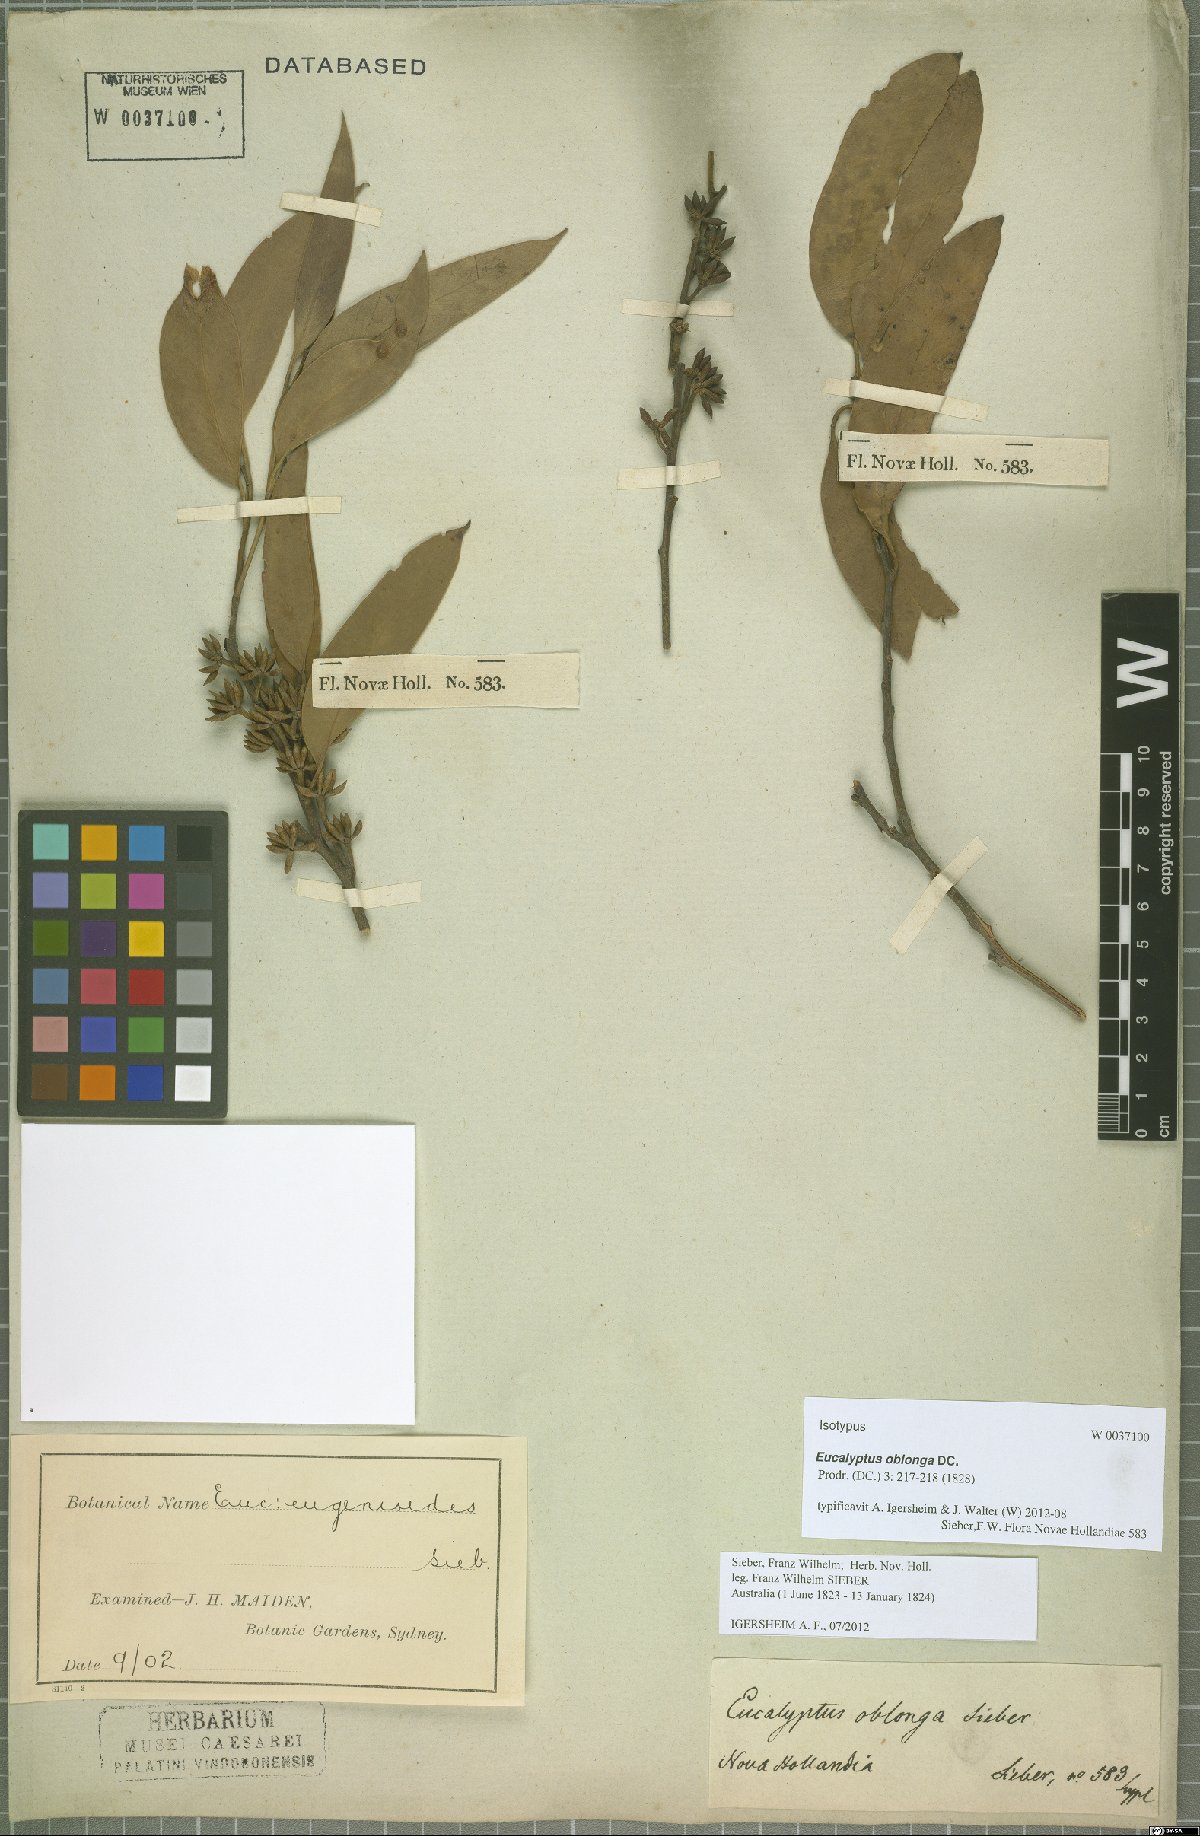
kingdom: Plantae
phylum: Tracheophyta
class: Magnoliopsida
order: Myrtales
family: Myrtaceae
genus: Eucalyptus
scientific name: Eucalyptus oblonga
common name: Narrow-leaf stringybark
